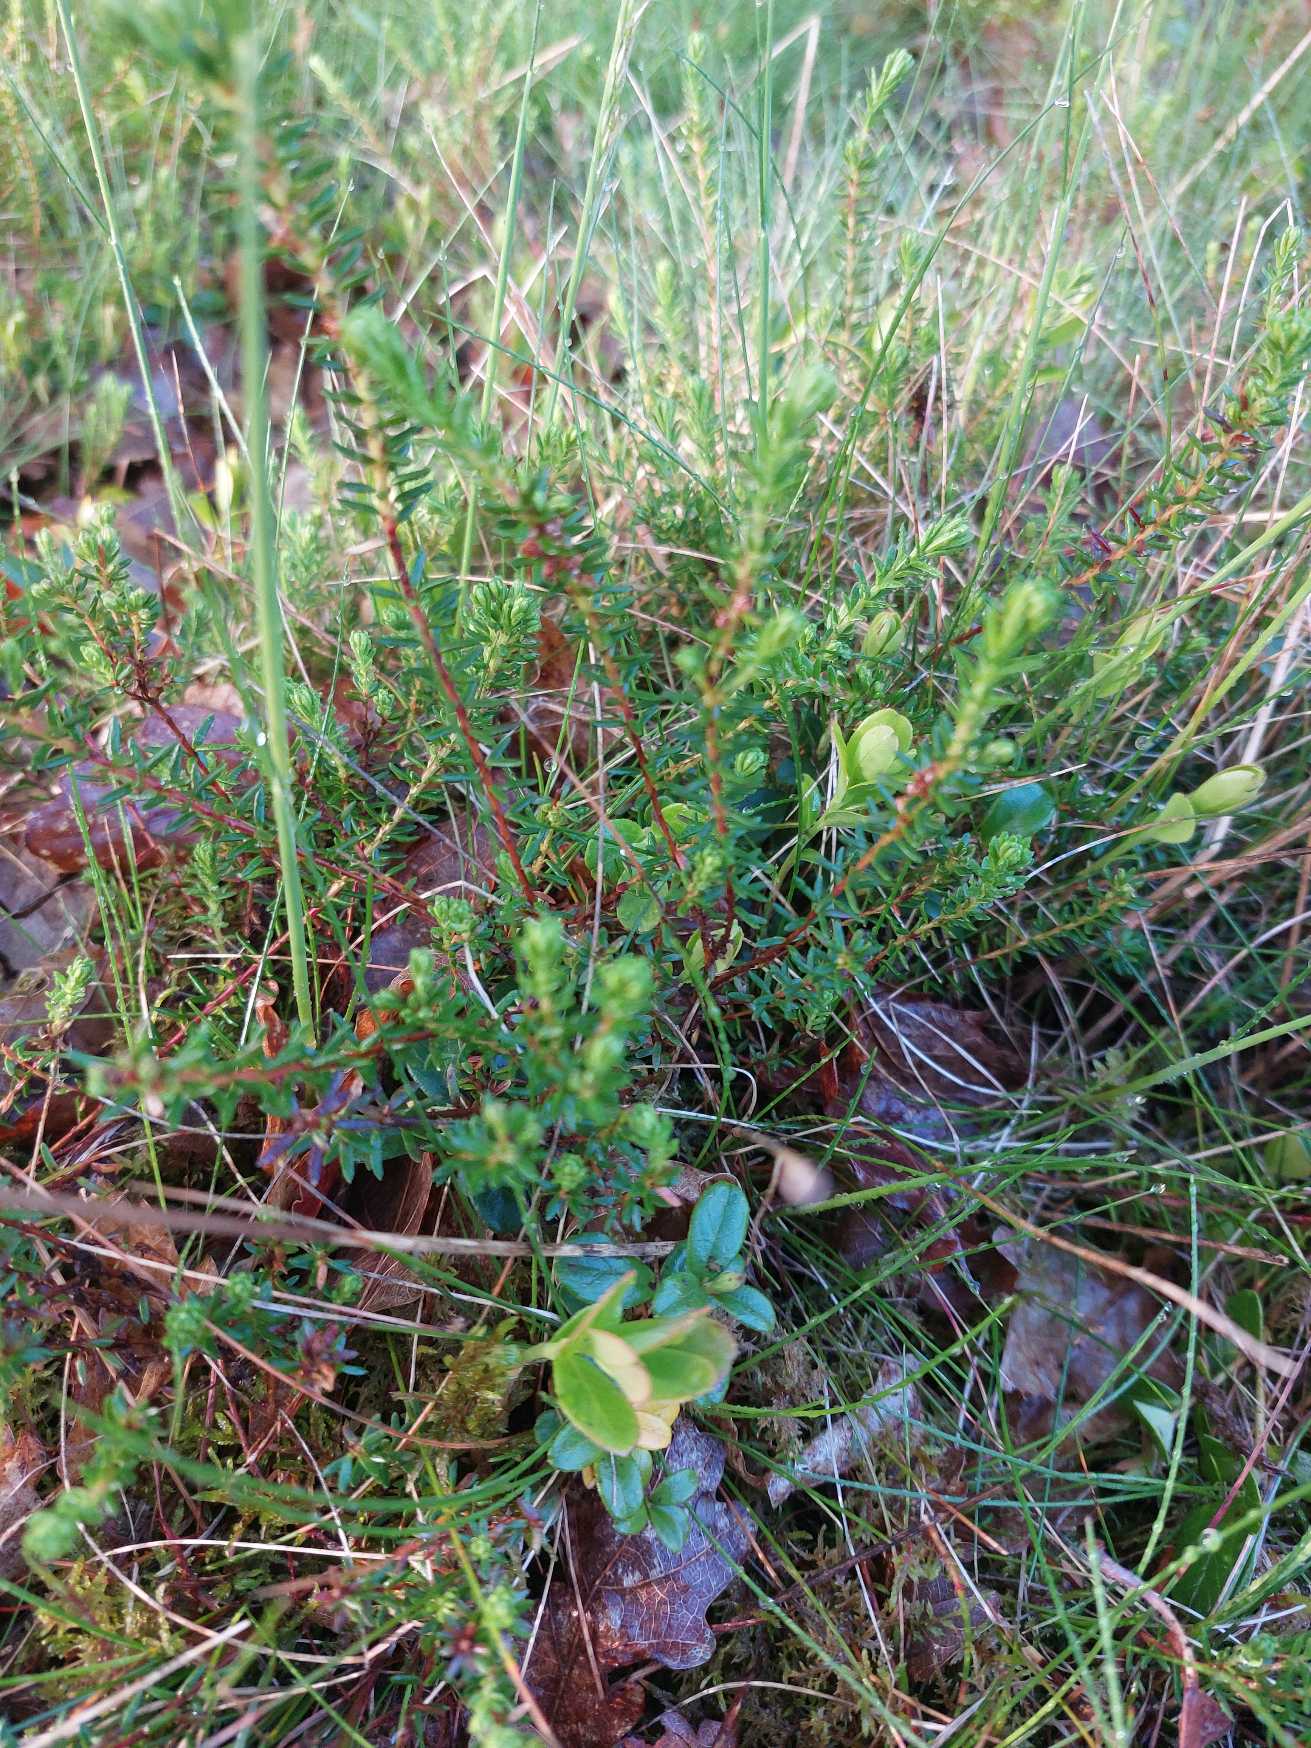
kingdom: Plantae
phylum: Tracheophyta
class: Magnoliopsida
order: Ericales
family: Ericaceae
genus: Empetrum
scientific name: Empetrum nigrum
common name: Revling
